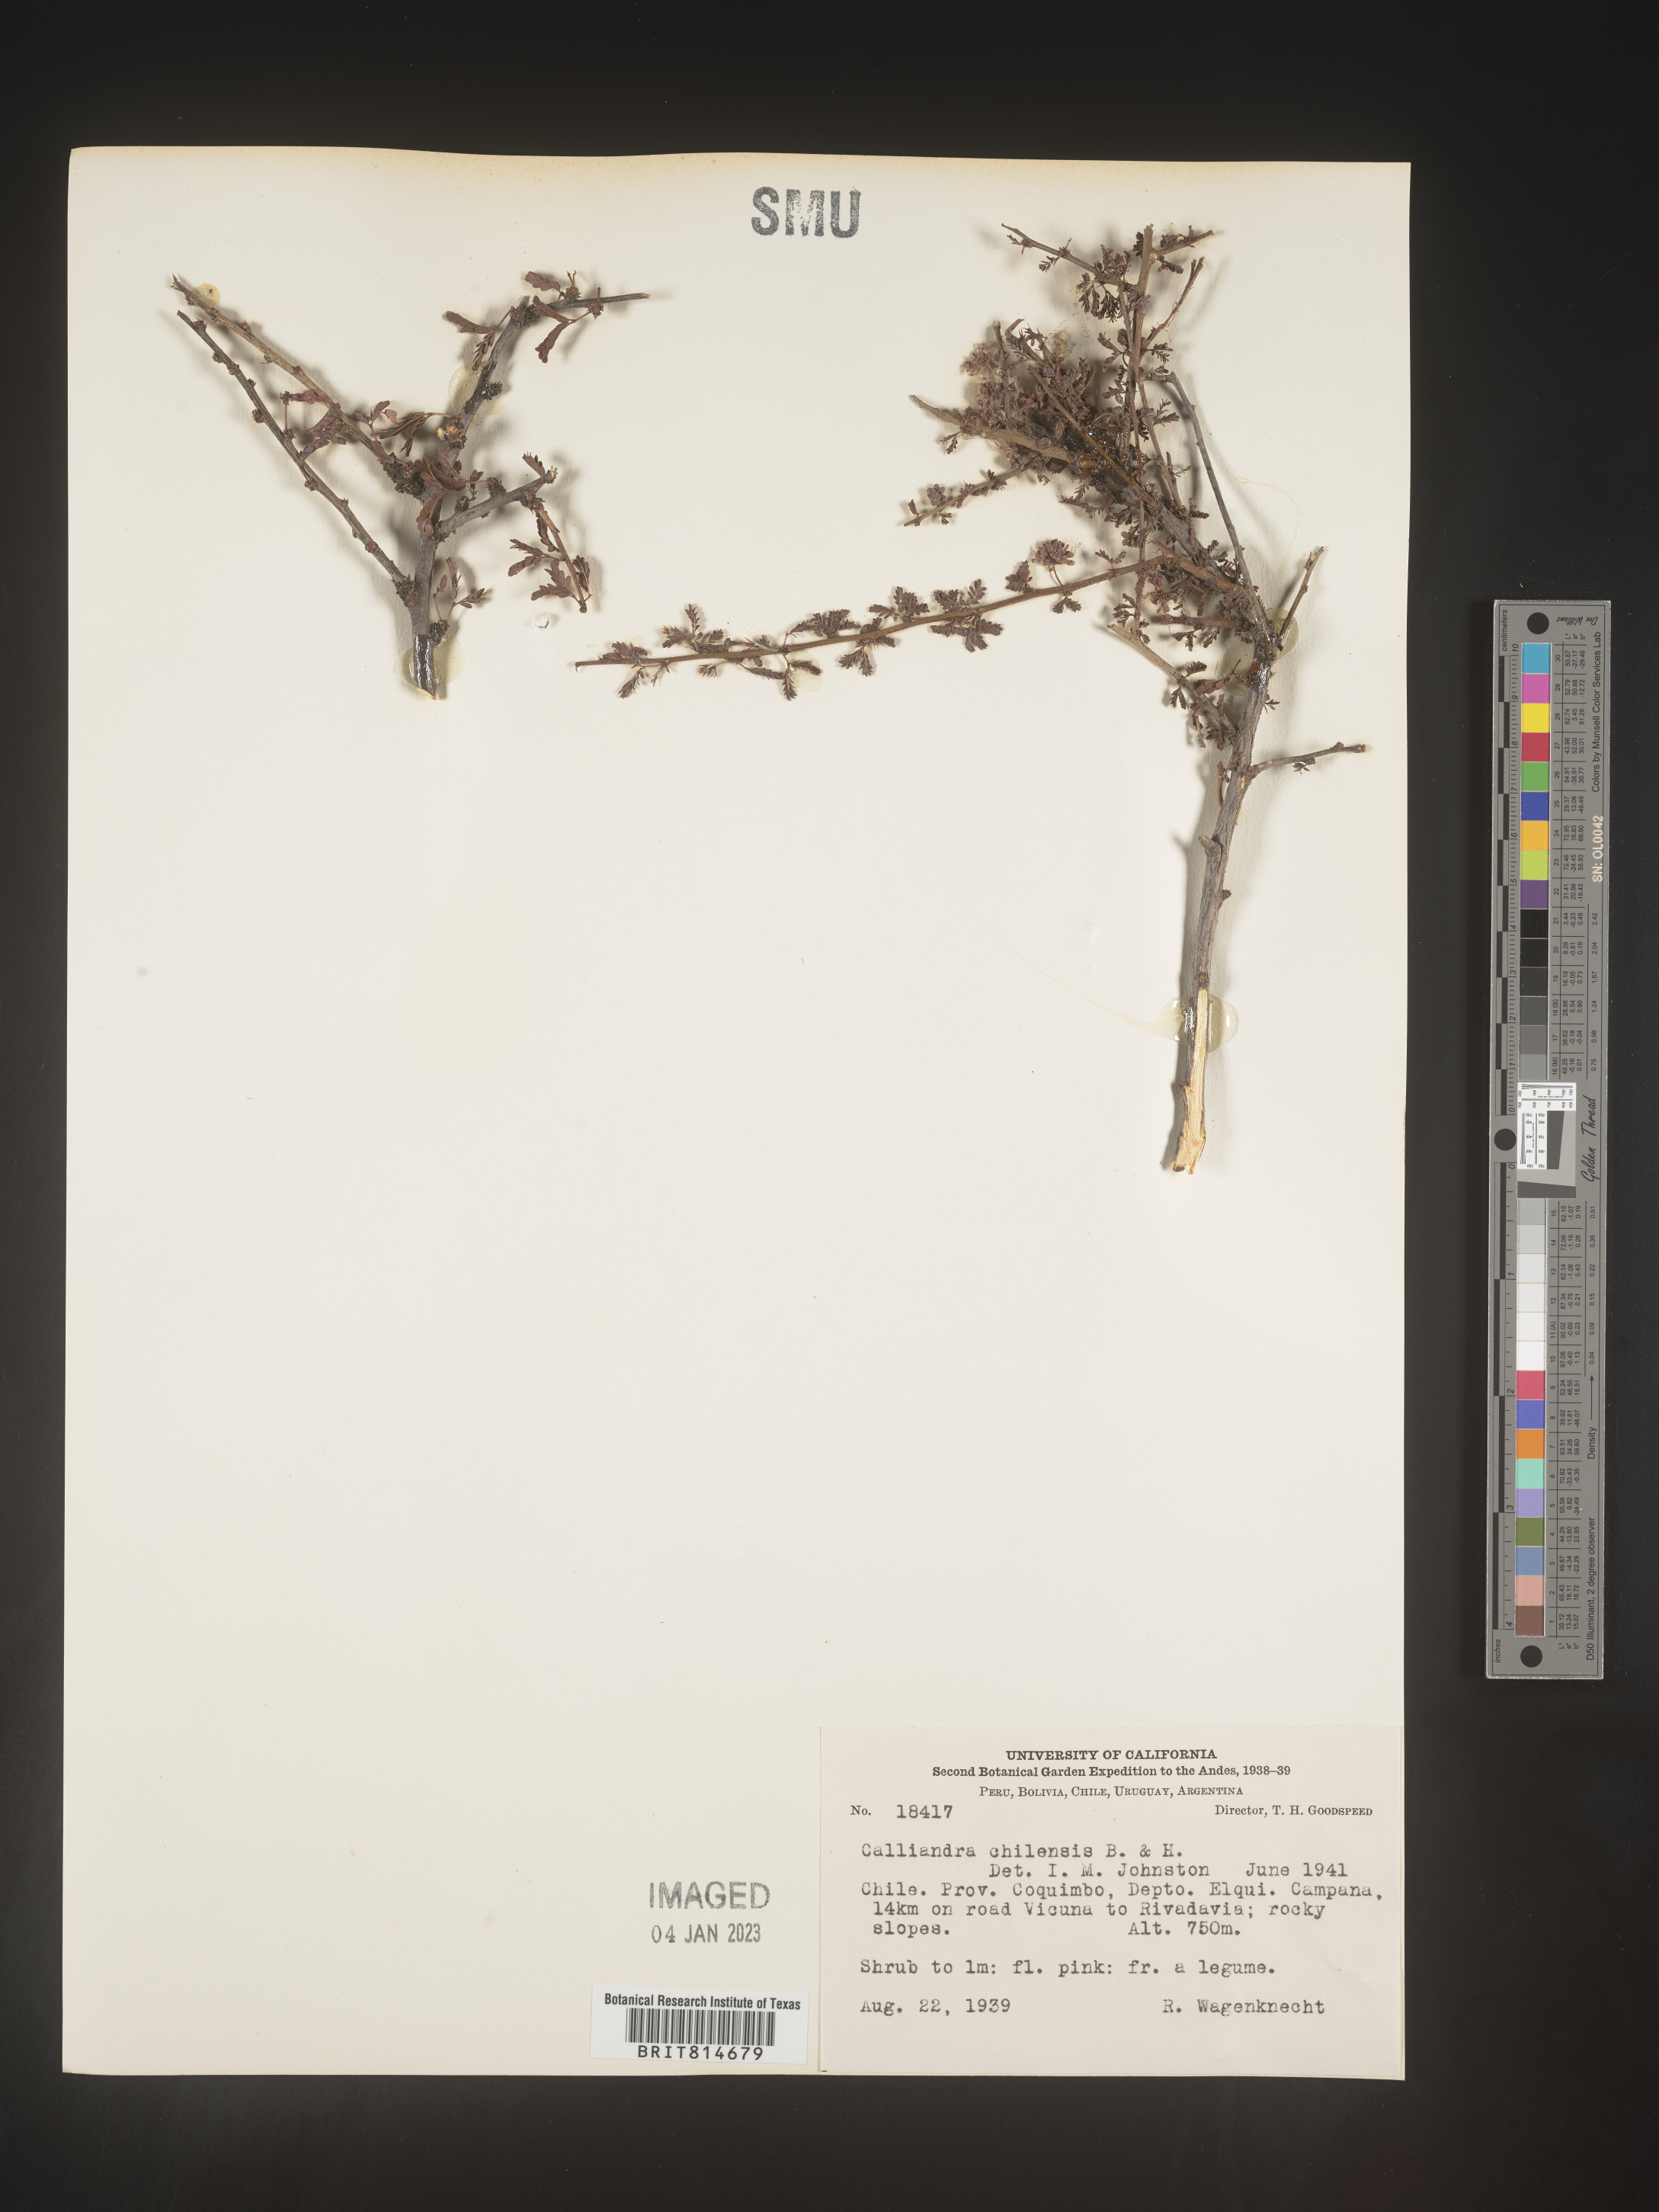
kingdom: Plantae
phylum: Tracheophyta
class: Magnoliopsida
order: Fabales
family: Fabaceae
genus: Calliandra
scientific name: Calliandra
